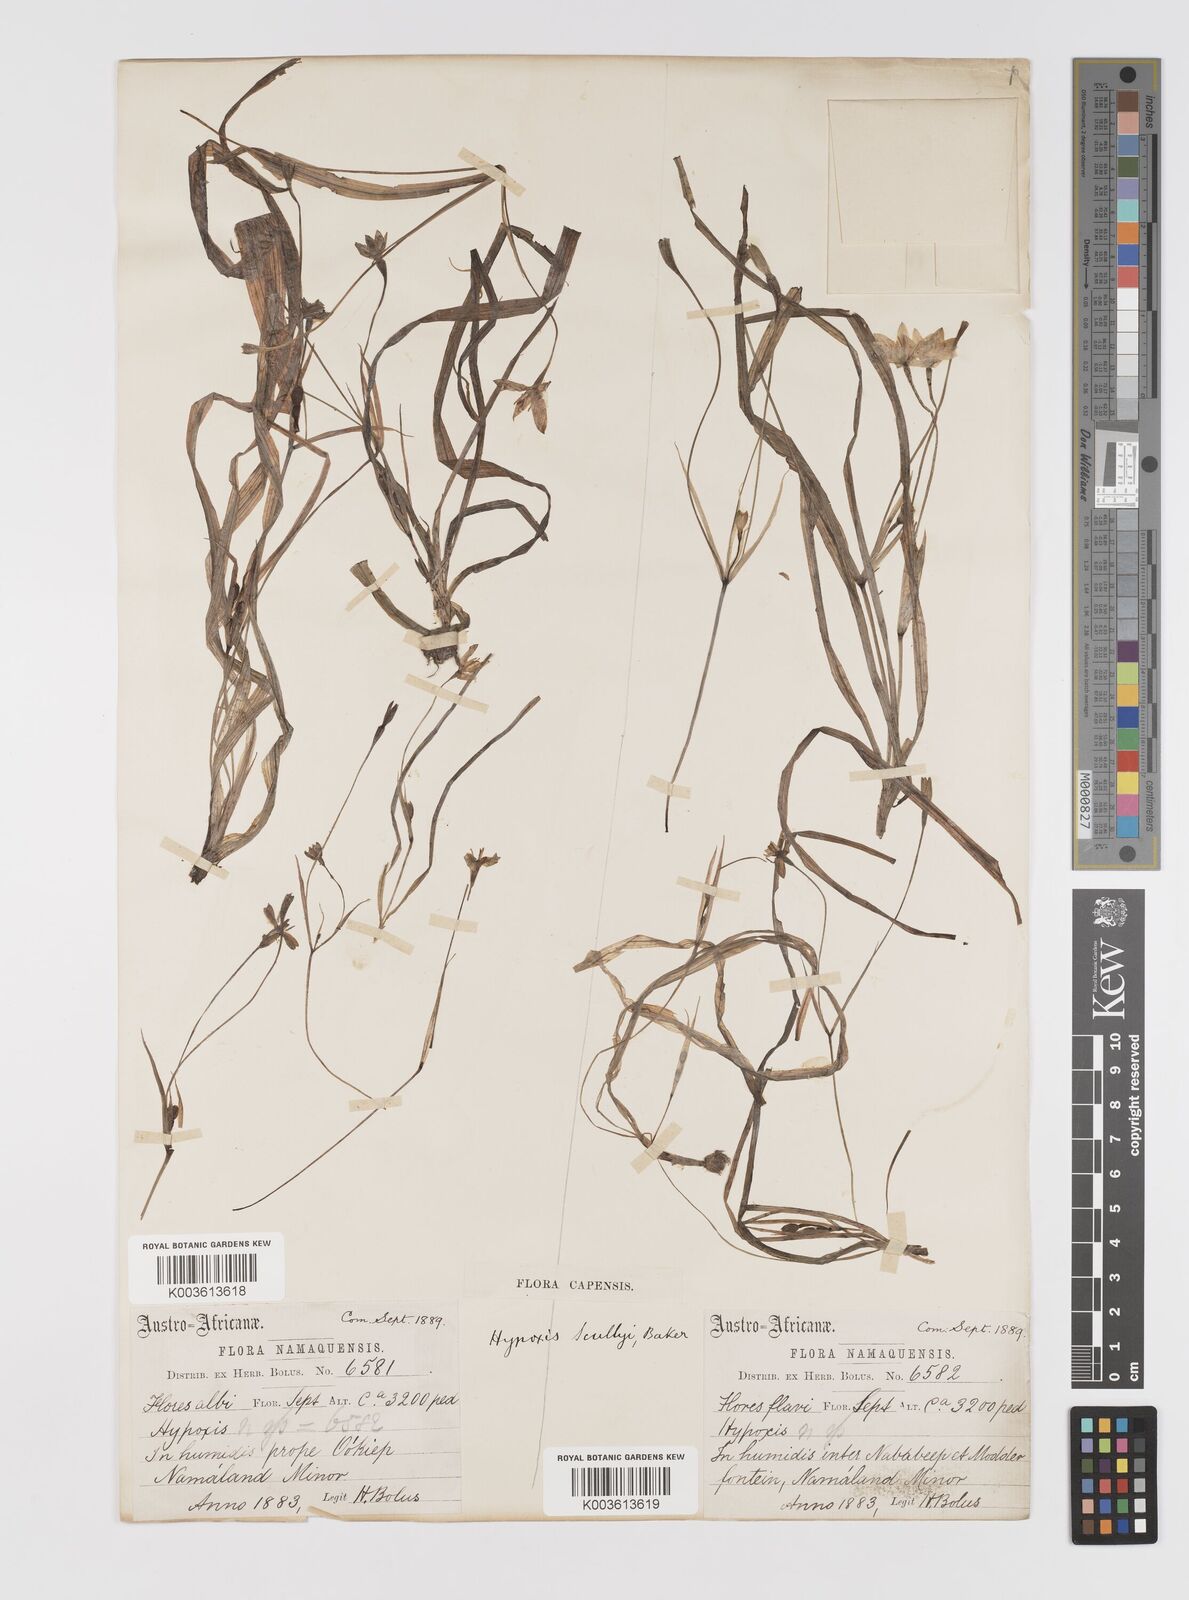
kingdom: Plantae
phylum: Tracheophyta
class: Liliopsida
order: Asparagales
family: Hypoxidaceae
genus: Pauridia
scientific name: Pauridia scullyi
